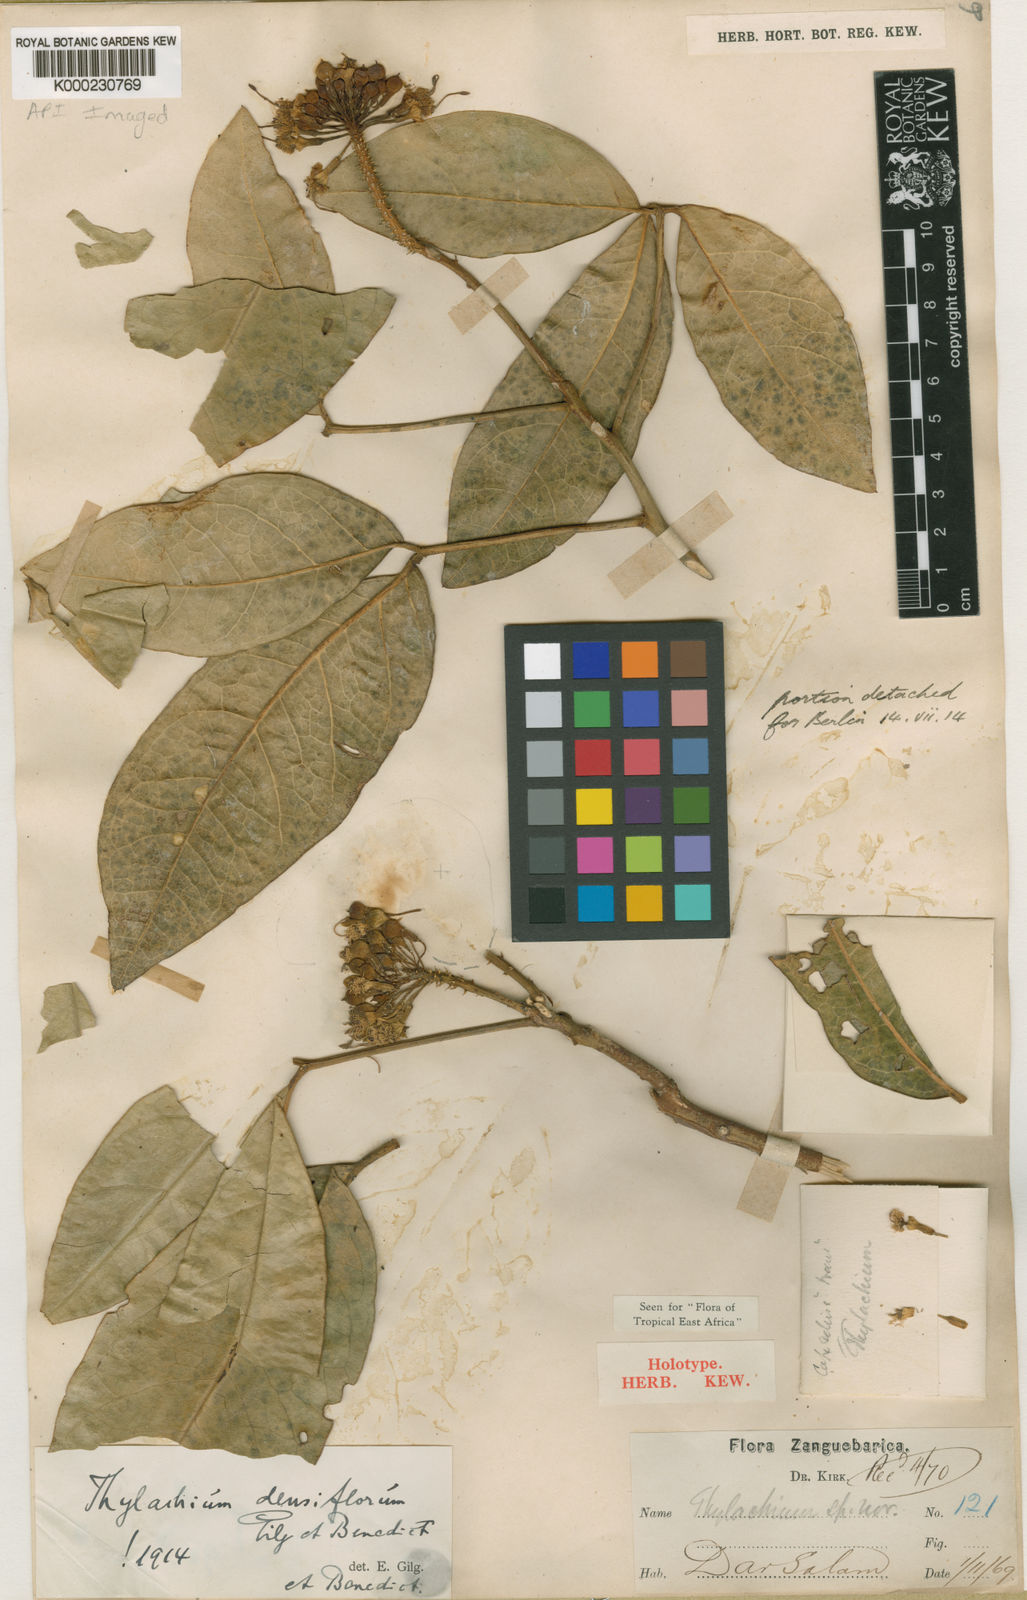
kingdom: Plantae
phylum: Tracheophyta
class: Magnoliopsida
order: Brassicales
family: Capparaceae
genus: Thilachium
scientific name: Thilachium densiflorum
